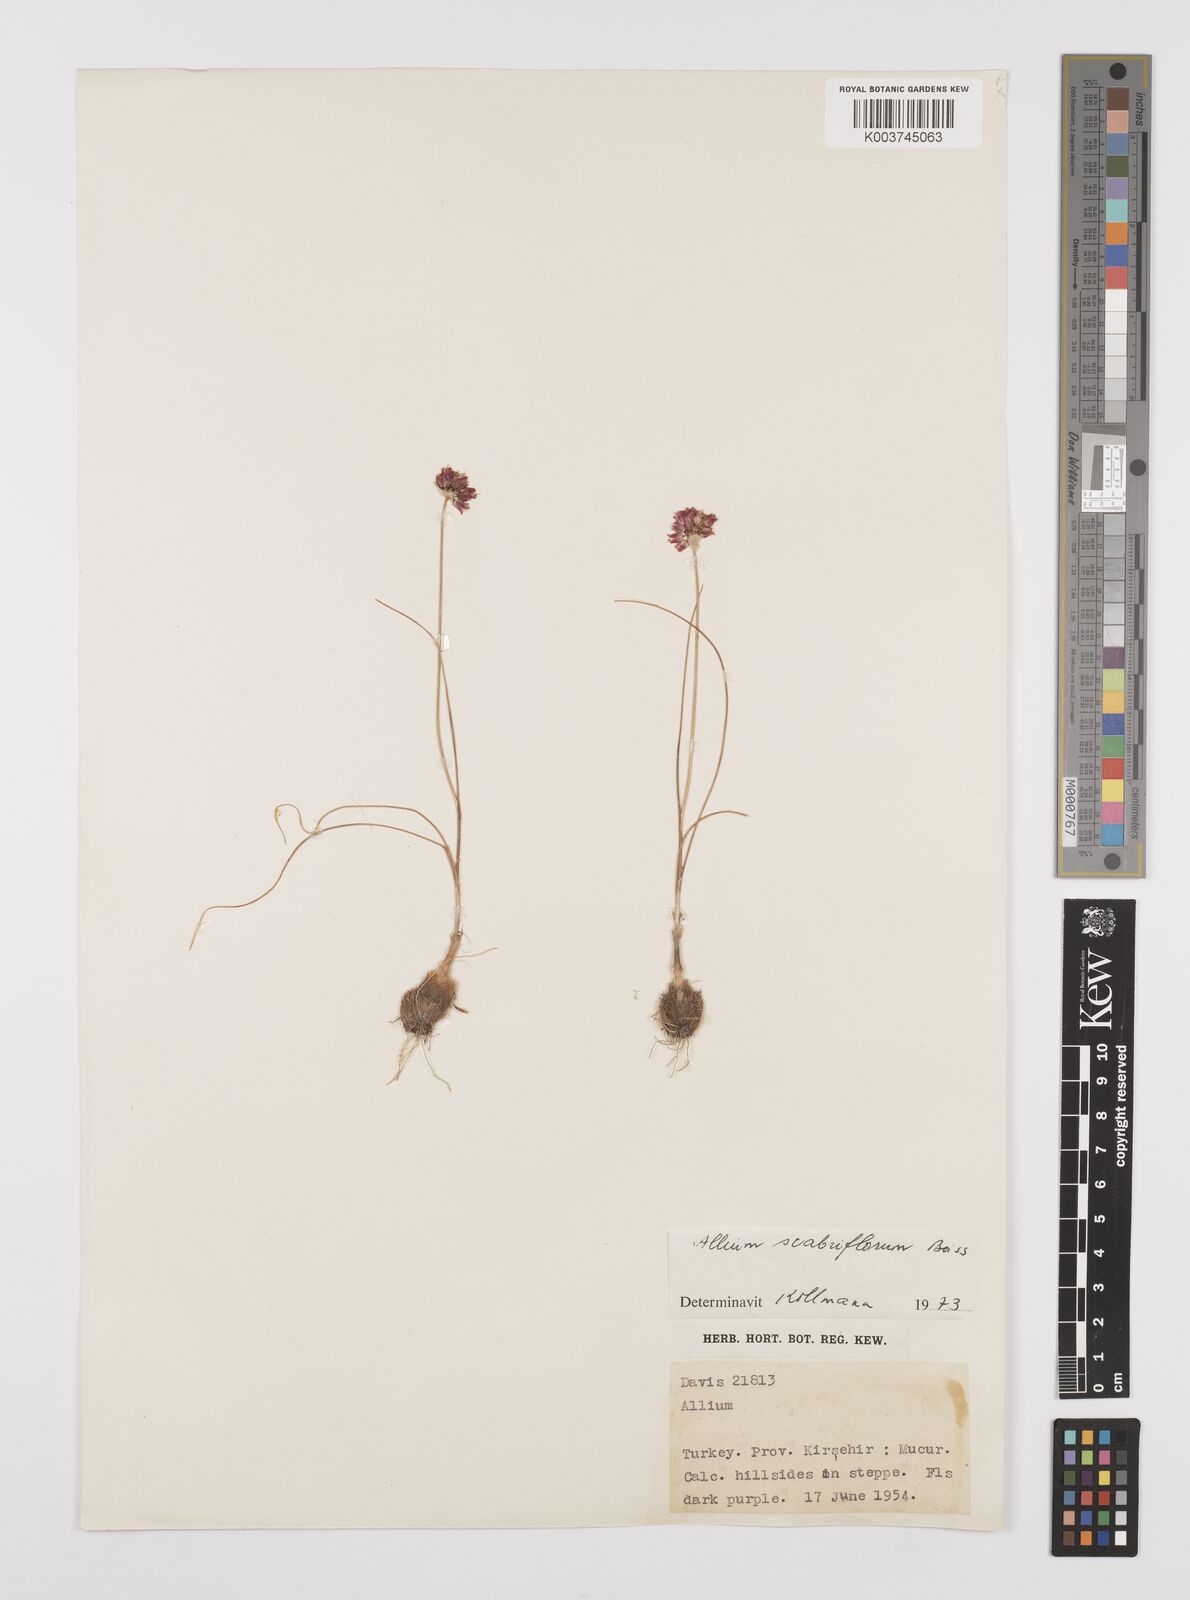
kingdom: Plantae
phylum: Tracheophyta
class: Liliopsida
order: Asparagales
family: Amaryllidaceae
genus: Allium
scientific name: Allium scabriflorum
